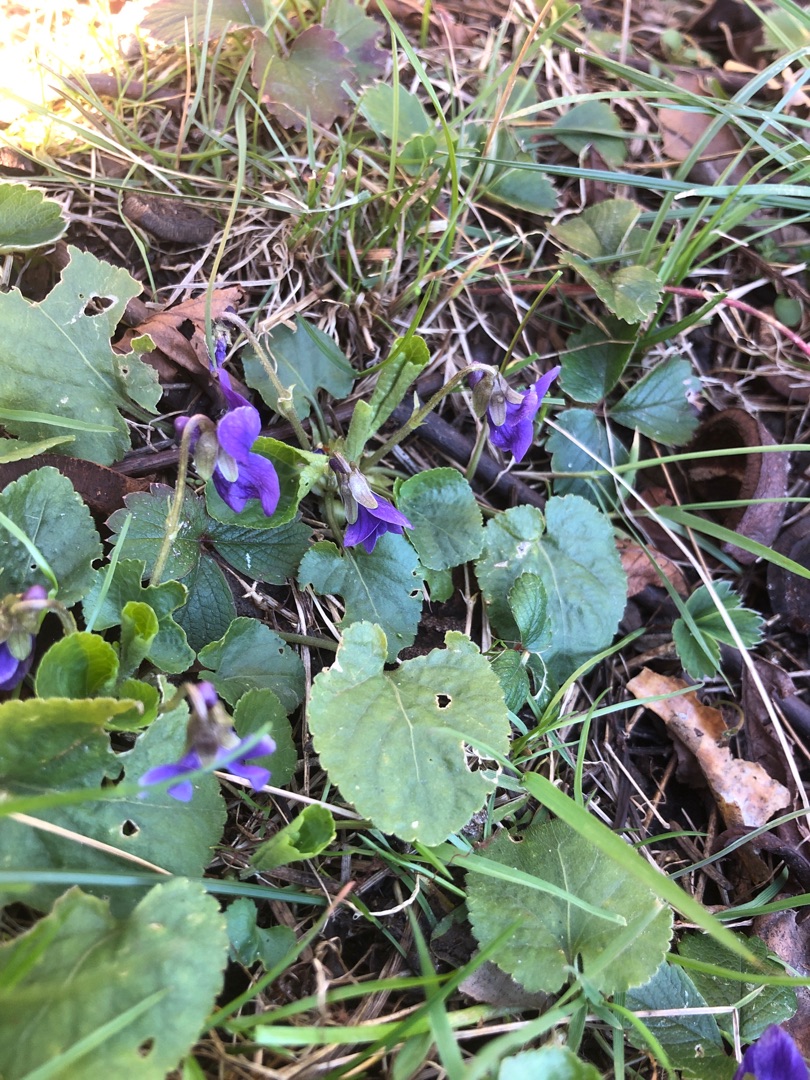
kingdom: Plantae
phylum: Tracheophyta
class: Magnoliopsida
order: Malpighiales
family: Violaceae
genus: Viola
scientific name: Viola odorata
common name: Marts-viol
